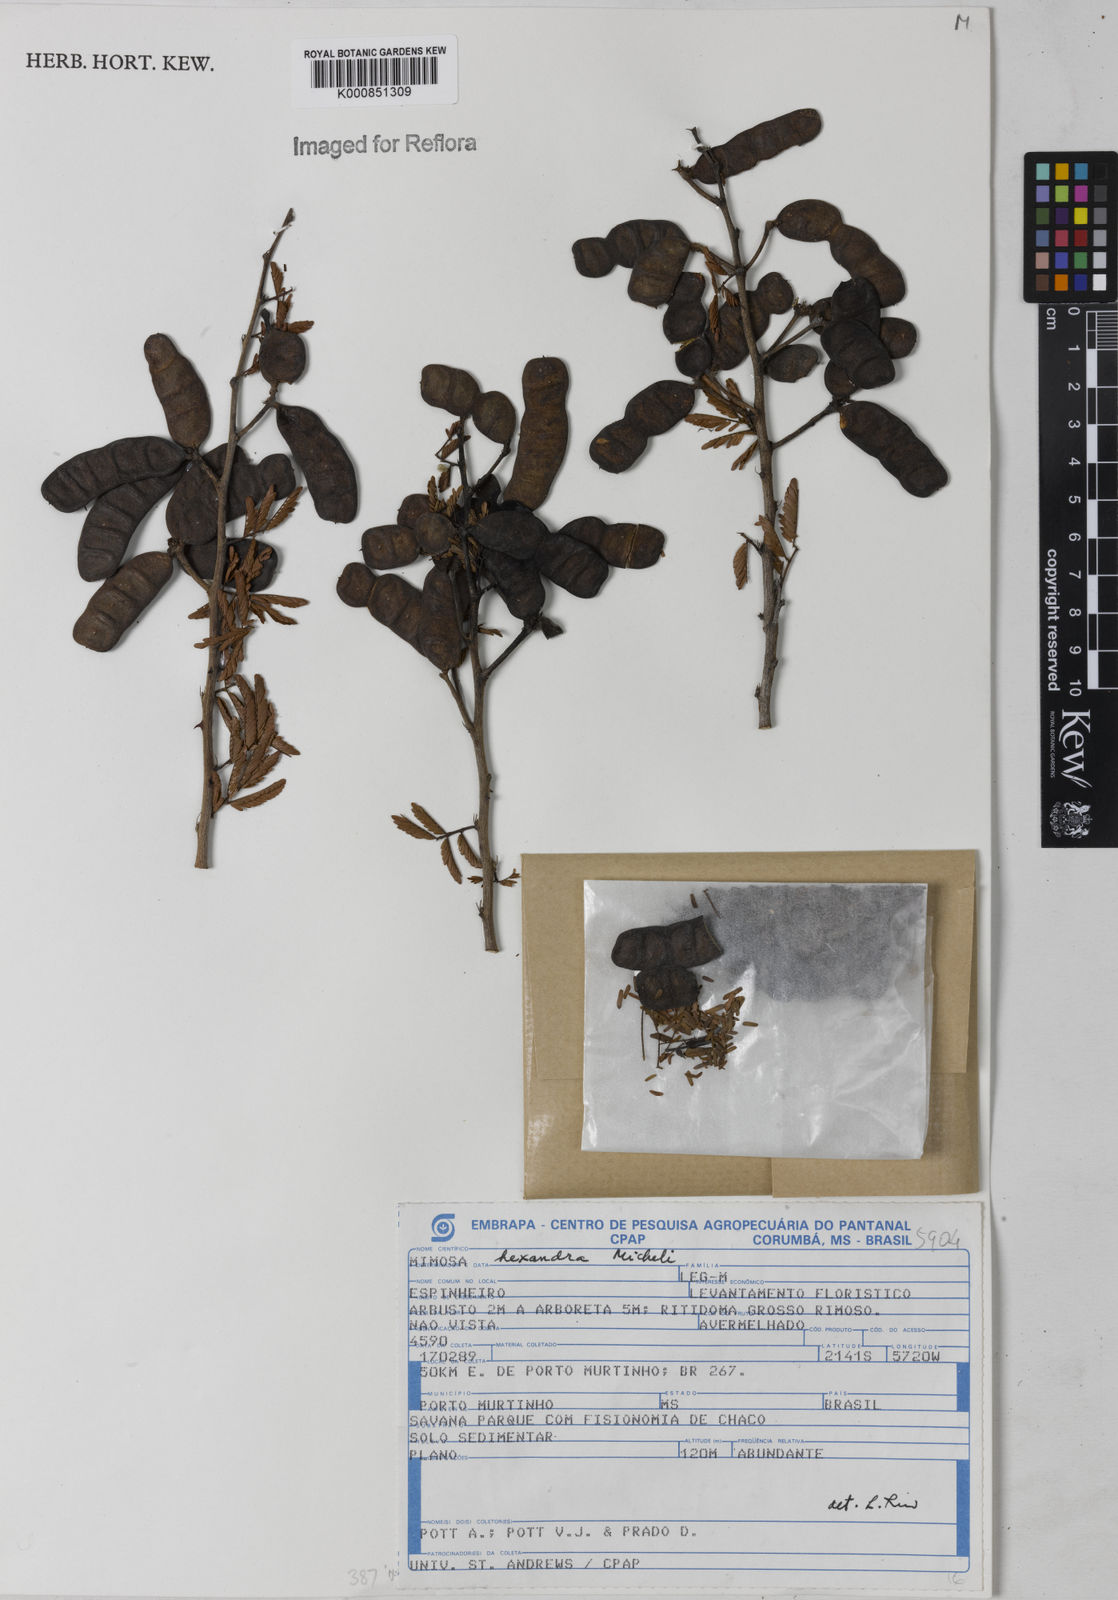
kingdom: Plantae
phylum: Tracheophyta
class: Magnoliopsida
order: Fabales
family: Fabaceae
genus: Mimosa
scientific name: Mimosa hexandra
